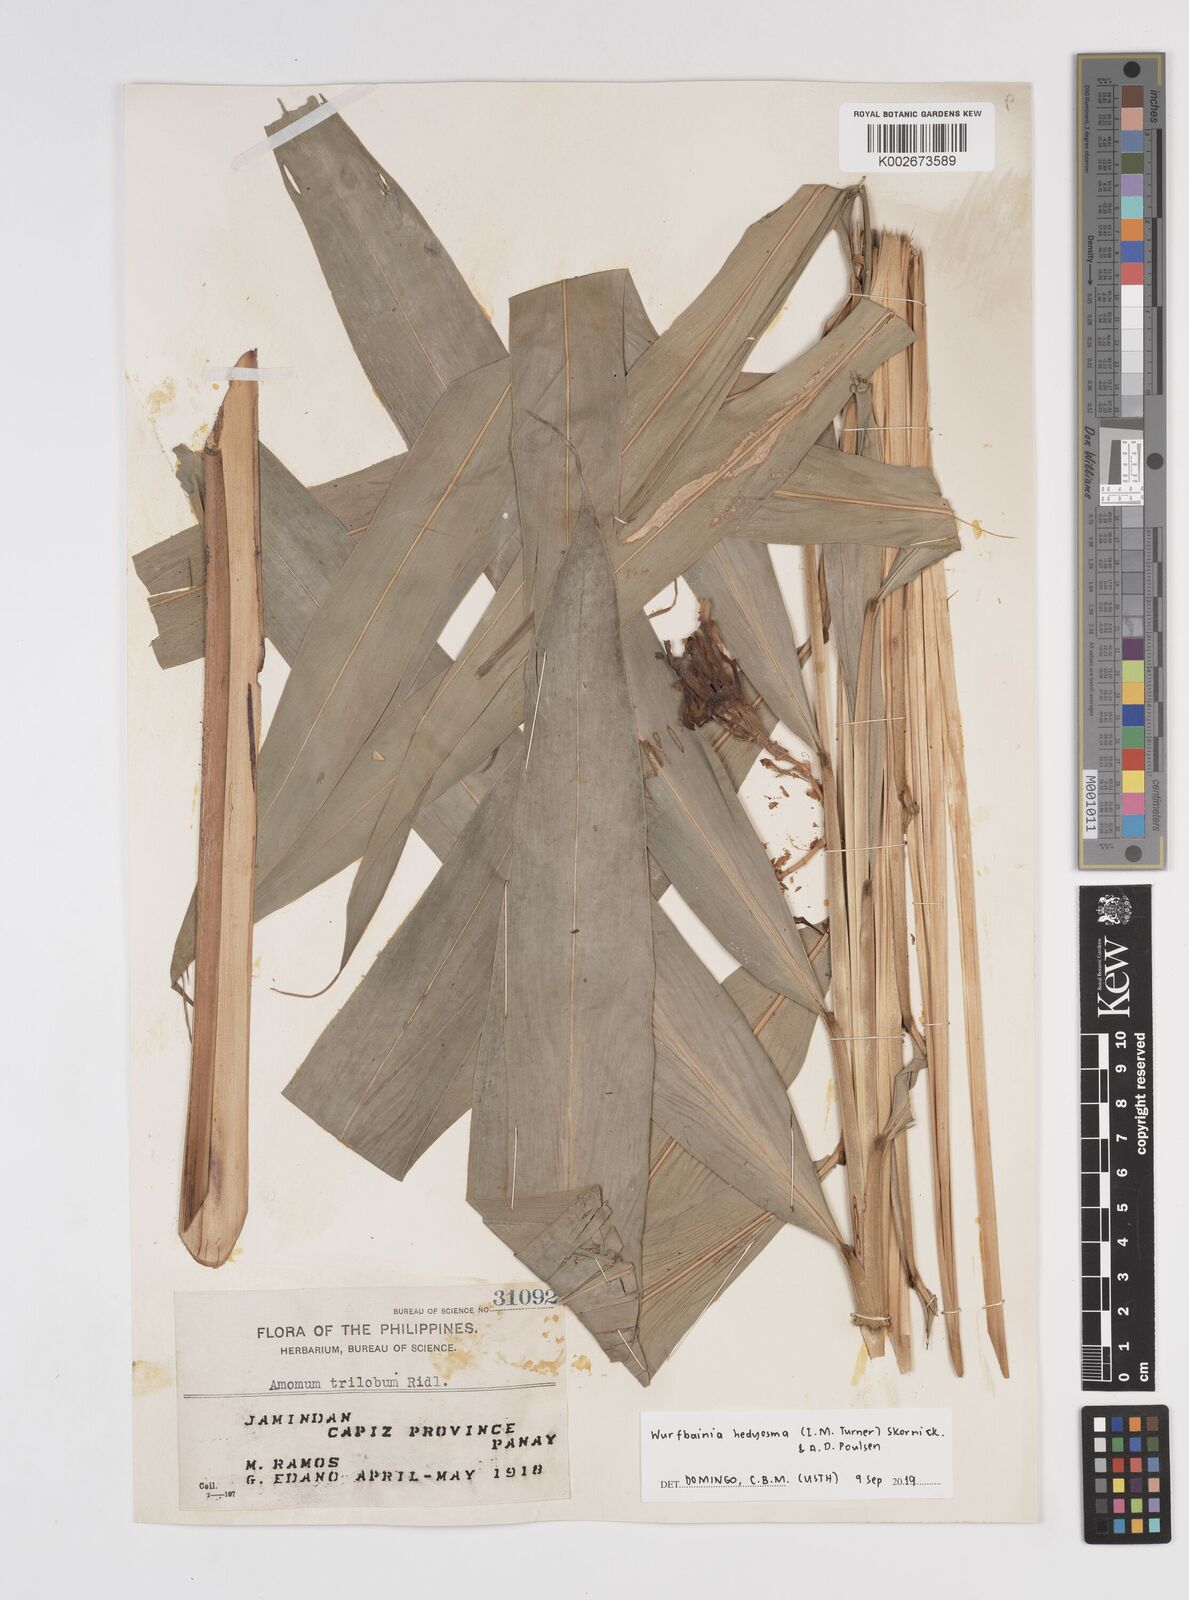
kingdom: Plantae
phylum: Tracheophyta
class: Liliopsida
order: Zingiberales
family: Zingiberaceae
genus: Amomum
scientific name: Amomum
